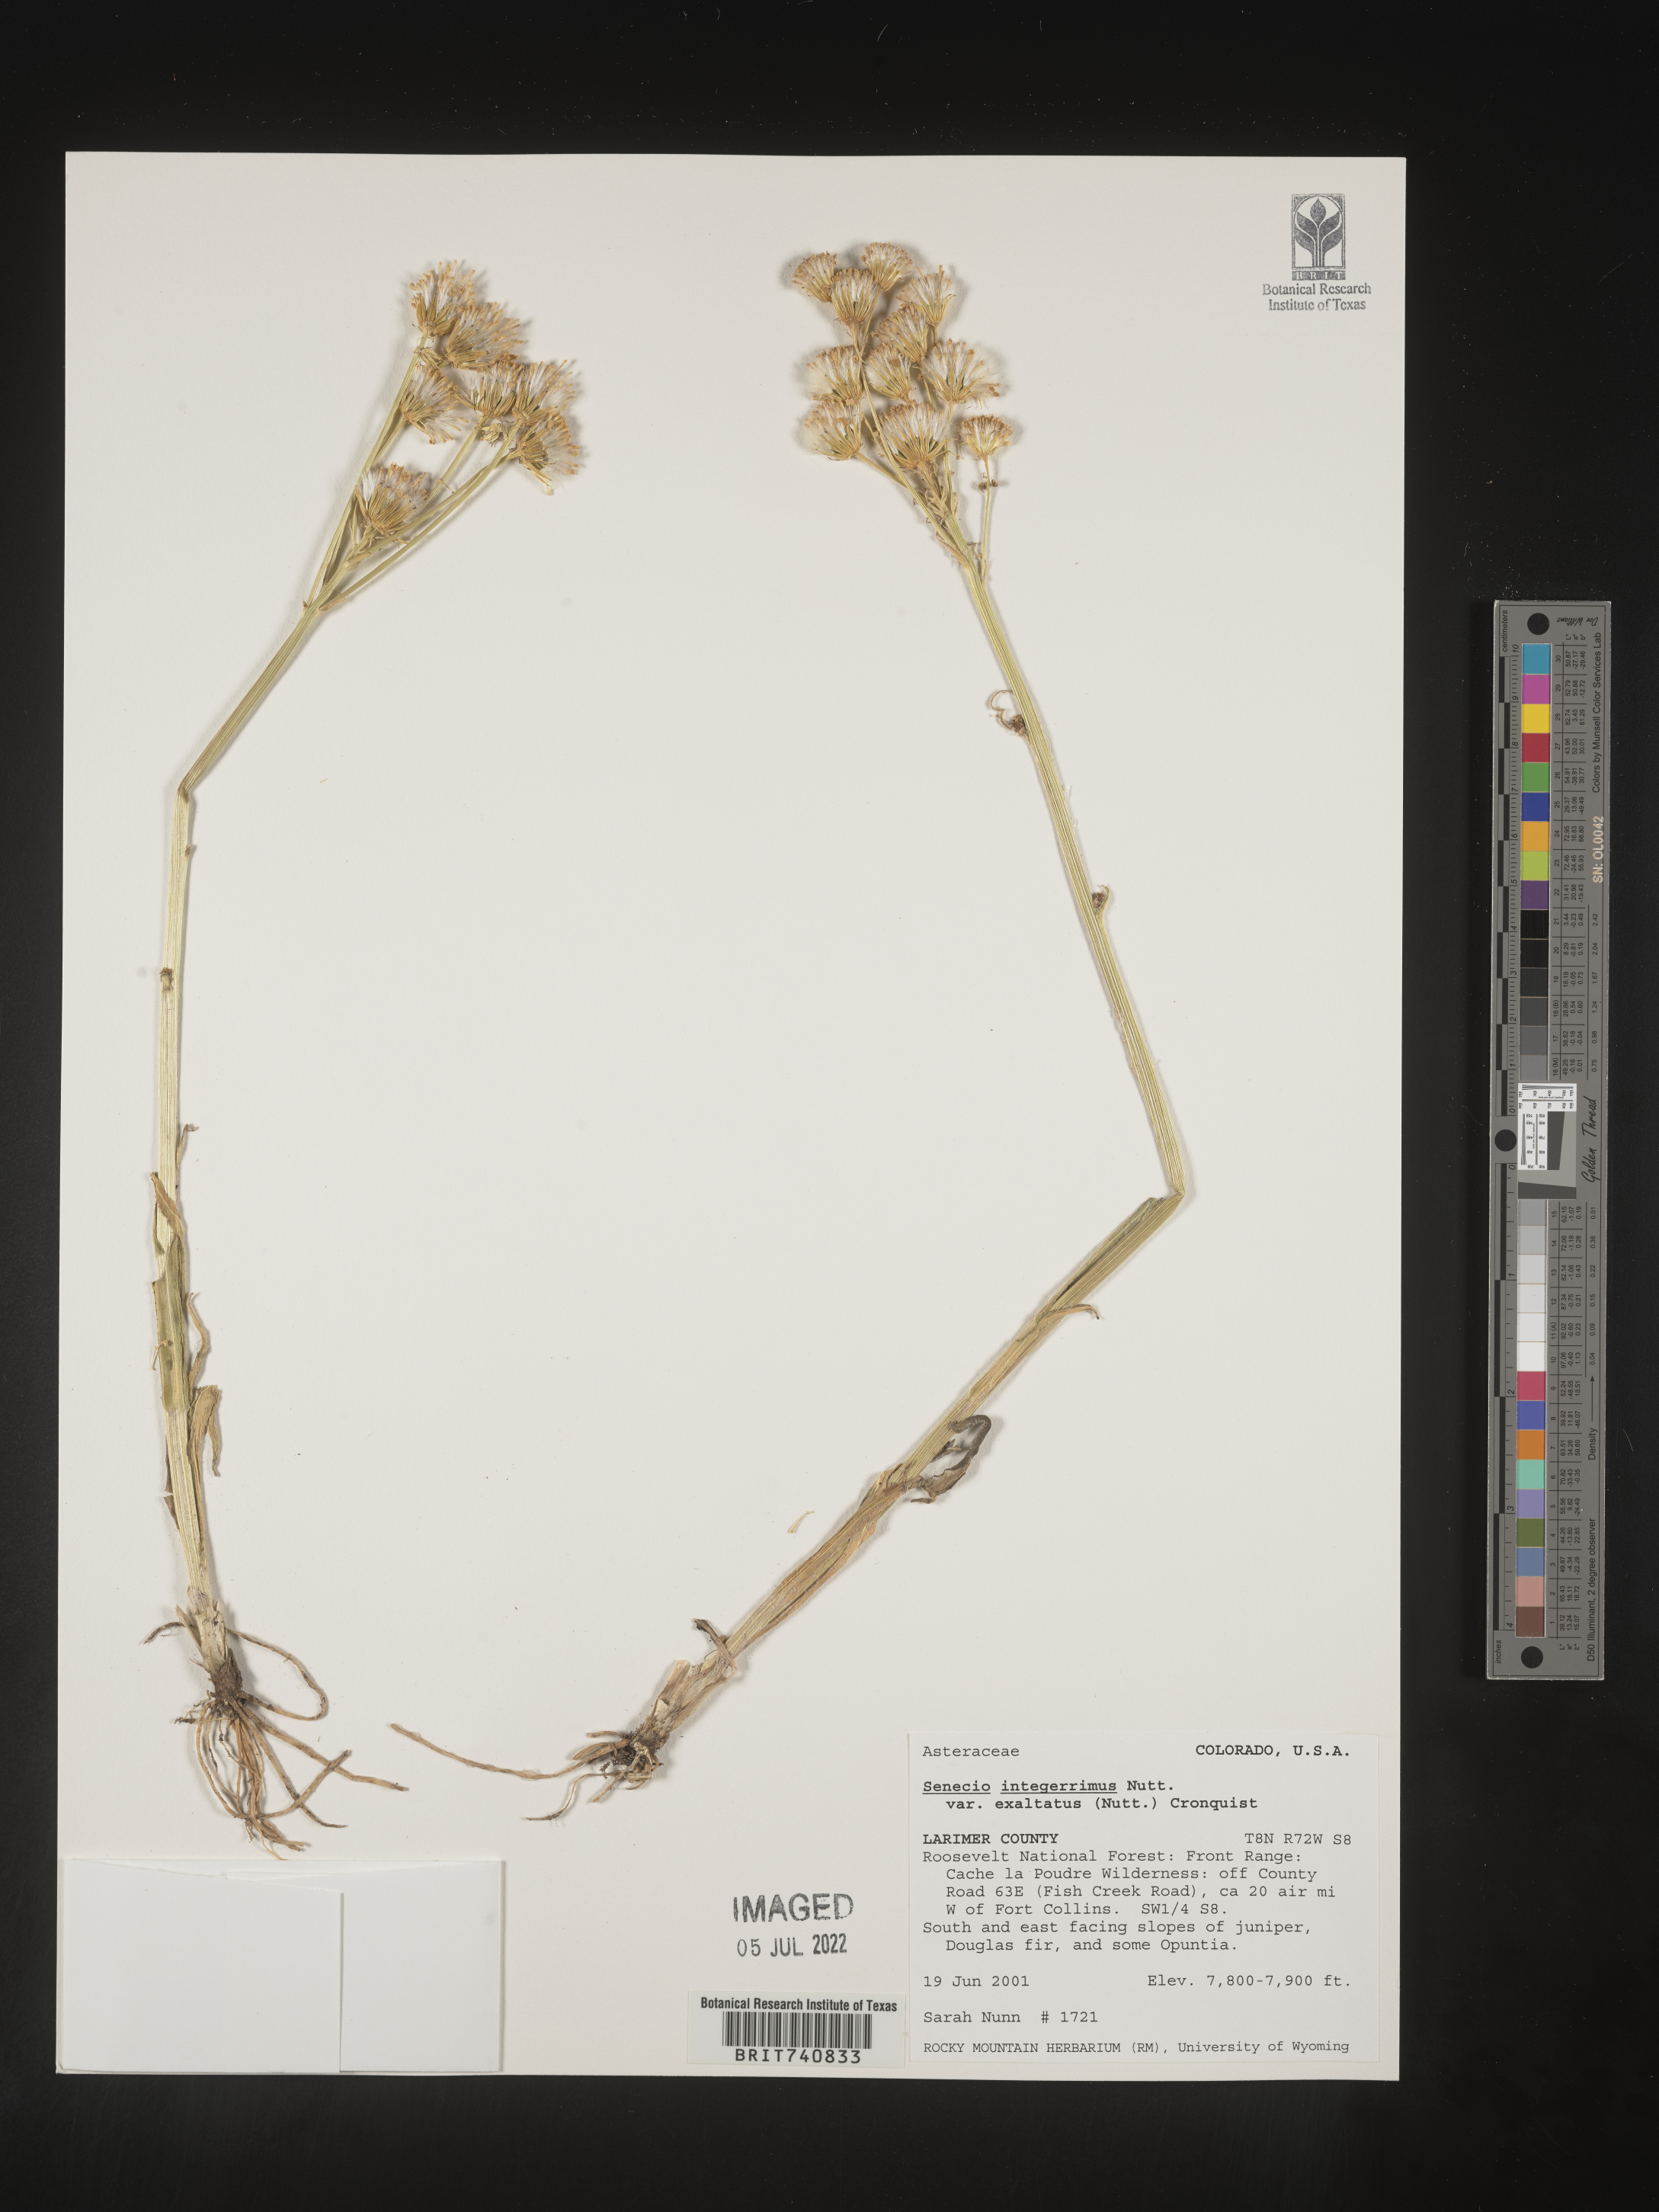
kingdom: Plantae
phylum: Tracheophyta
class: Magnoliopsida
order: Asterales
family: Asteraceae
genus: Senecio
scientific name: Senecio integerrimus
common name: Gaugeplant
